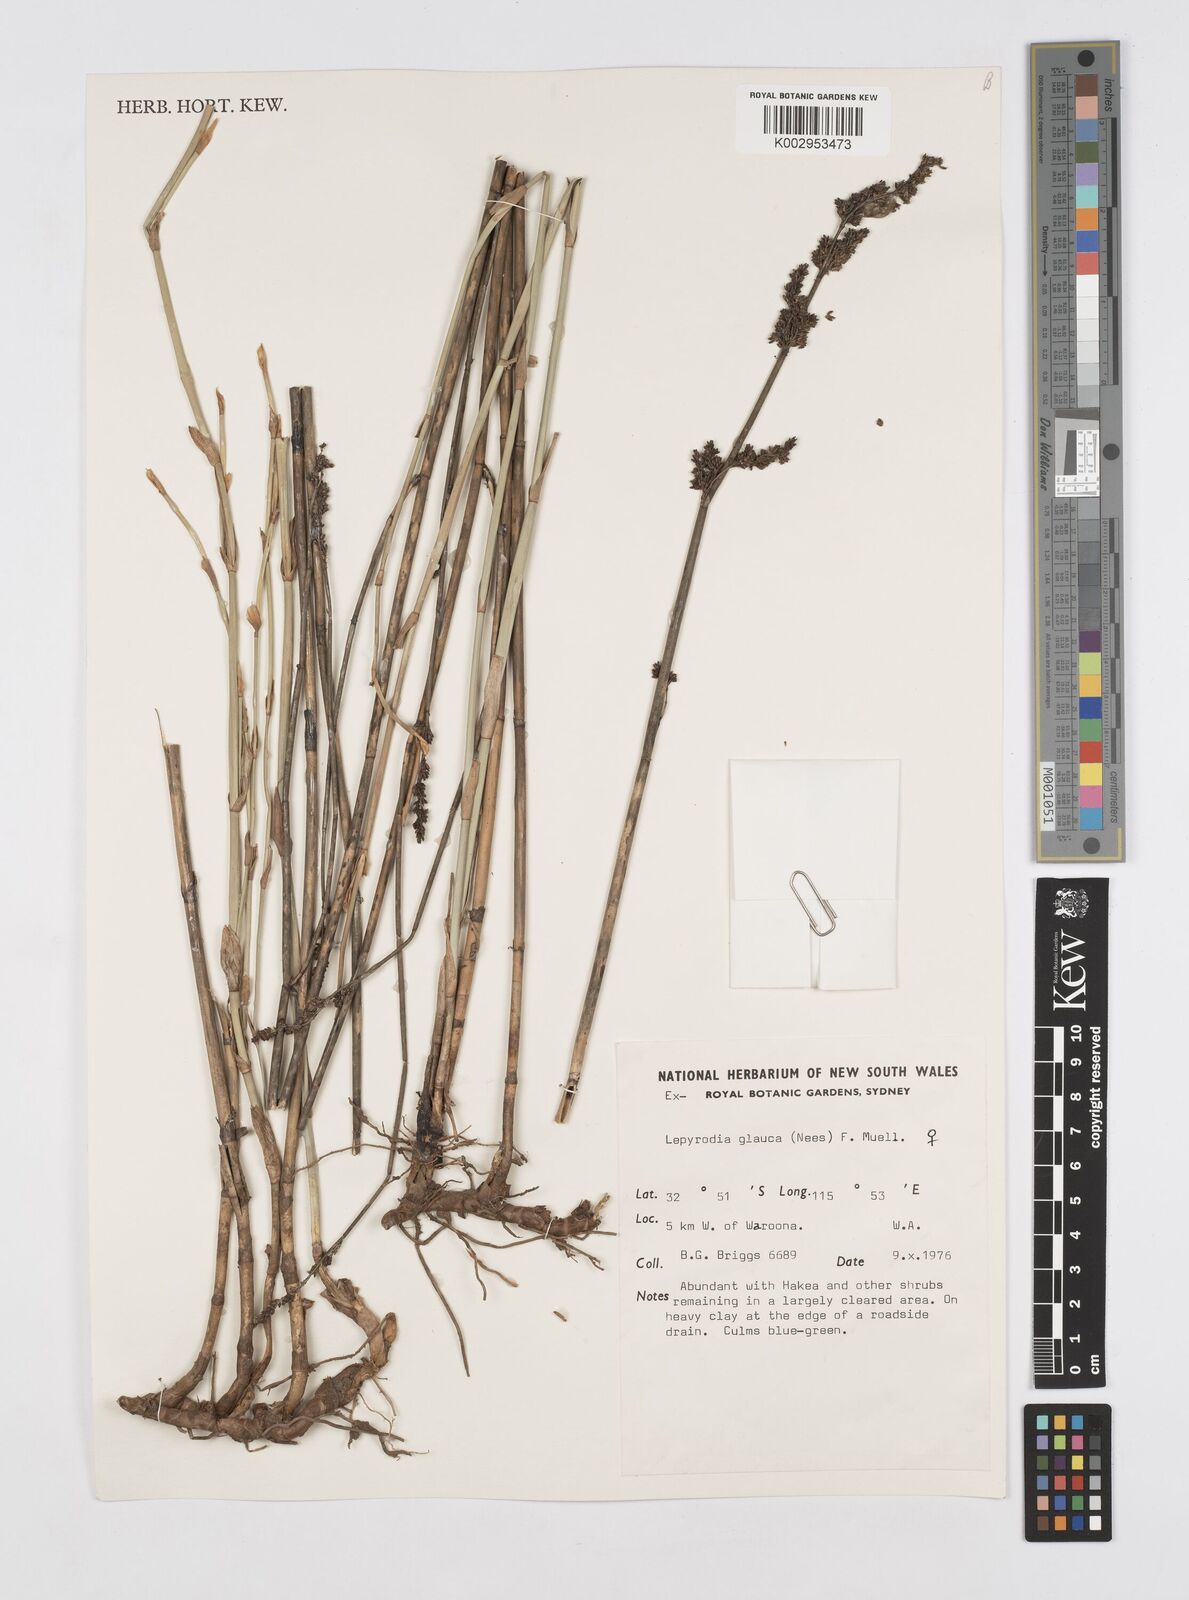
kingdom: Plantae
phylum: Tracheophyta
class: Liliopsida
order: Poales
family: Restionaceae
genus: Lepyrodia
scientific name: Lepyrodia glauca
